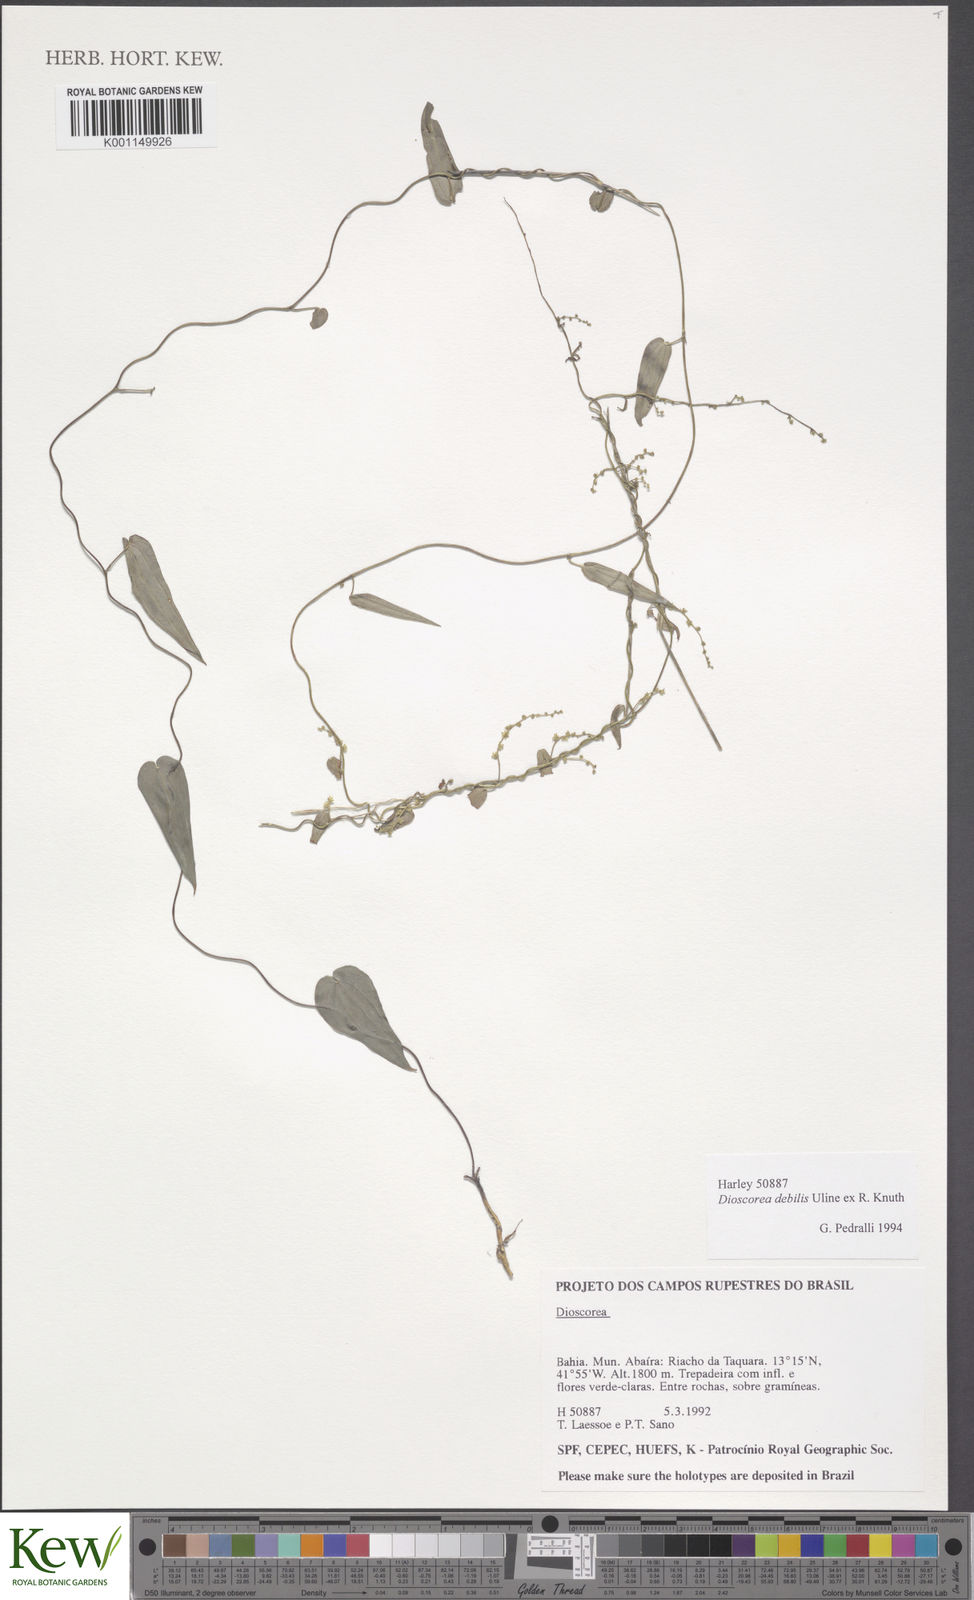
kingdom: Plantae
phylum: Tracheophyta
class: Liliopsida
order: Dioscoreales
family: Dioscoreaceae
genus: Dioscorea
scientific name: Dioscorea debilis
